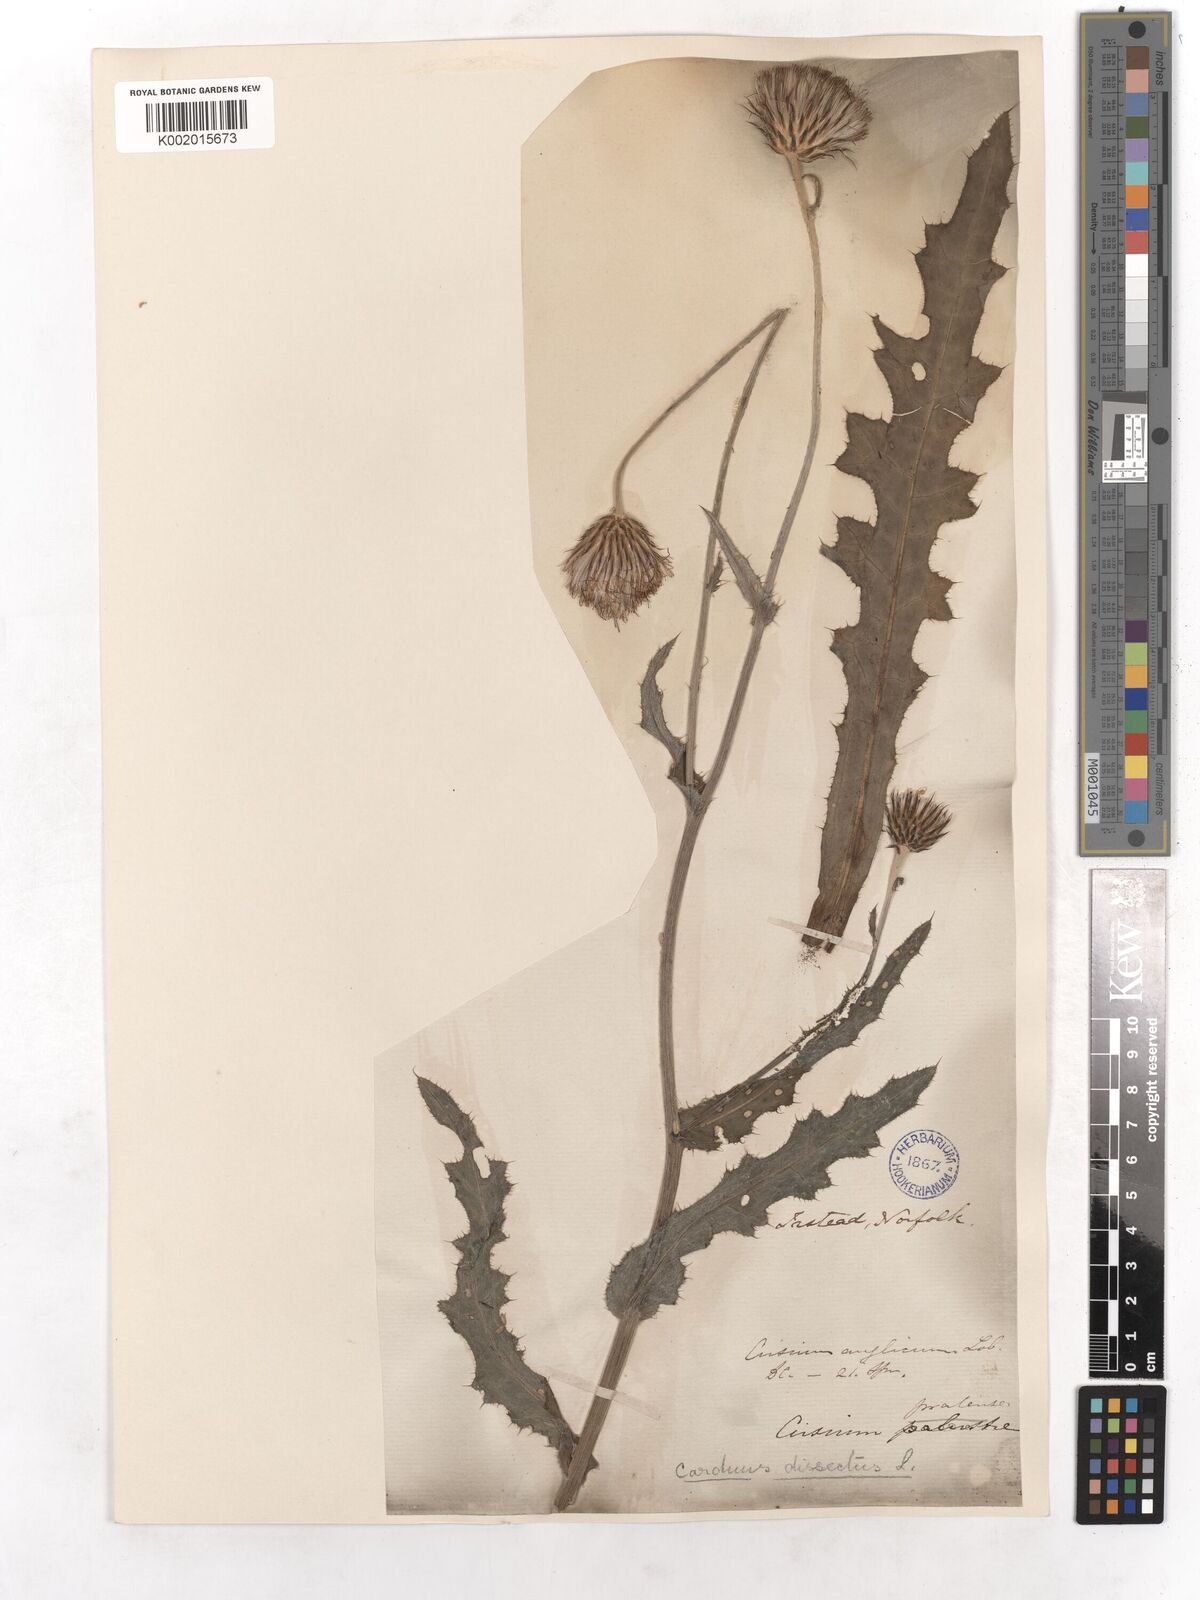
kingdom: Plantae
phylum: Tracheophyta
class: Magnoliopsida
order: Asterales
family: Asteraceae
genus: Cirsium
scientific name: Cirsium dissectum
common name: Meadow thistle
